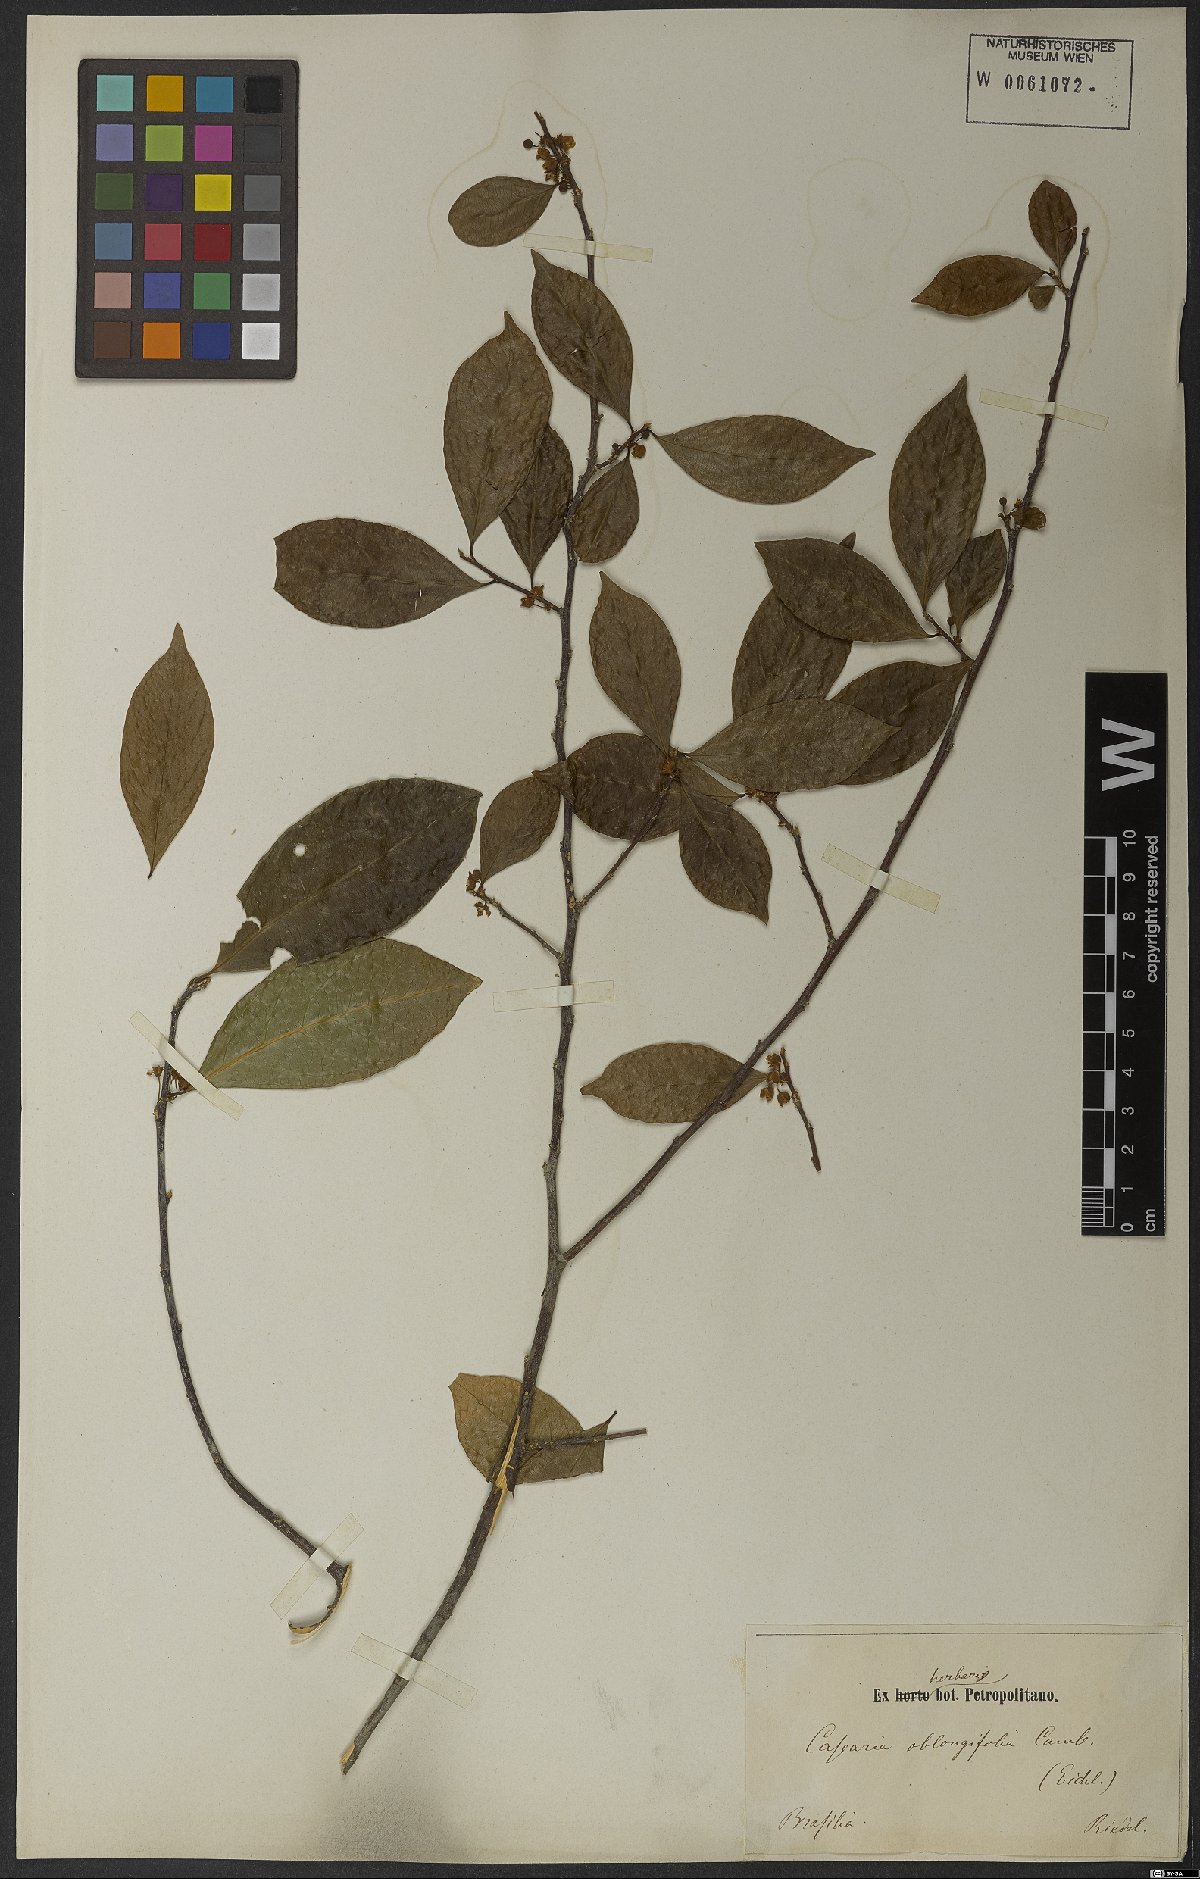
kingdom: Plantae
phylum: Tracheophyta
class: Magnoliopsida
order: Malpighiales
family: Salicaceae
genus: Casearia
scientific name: Casearia oblongifolia
